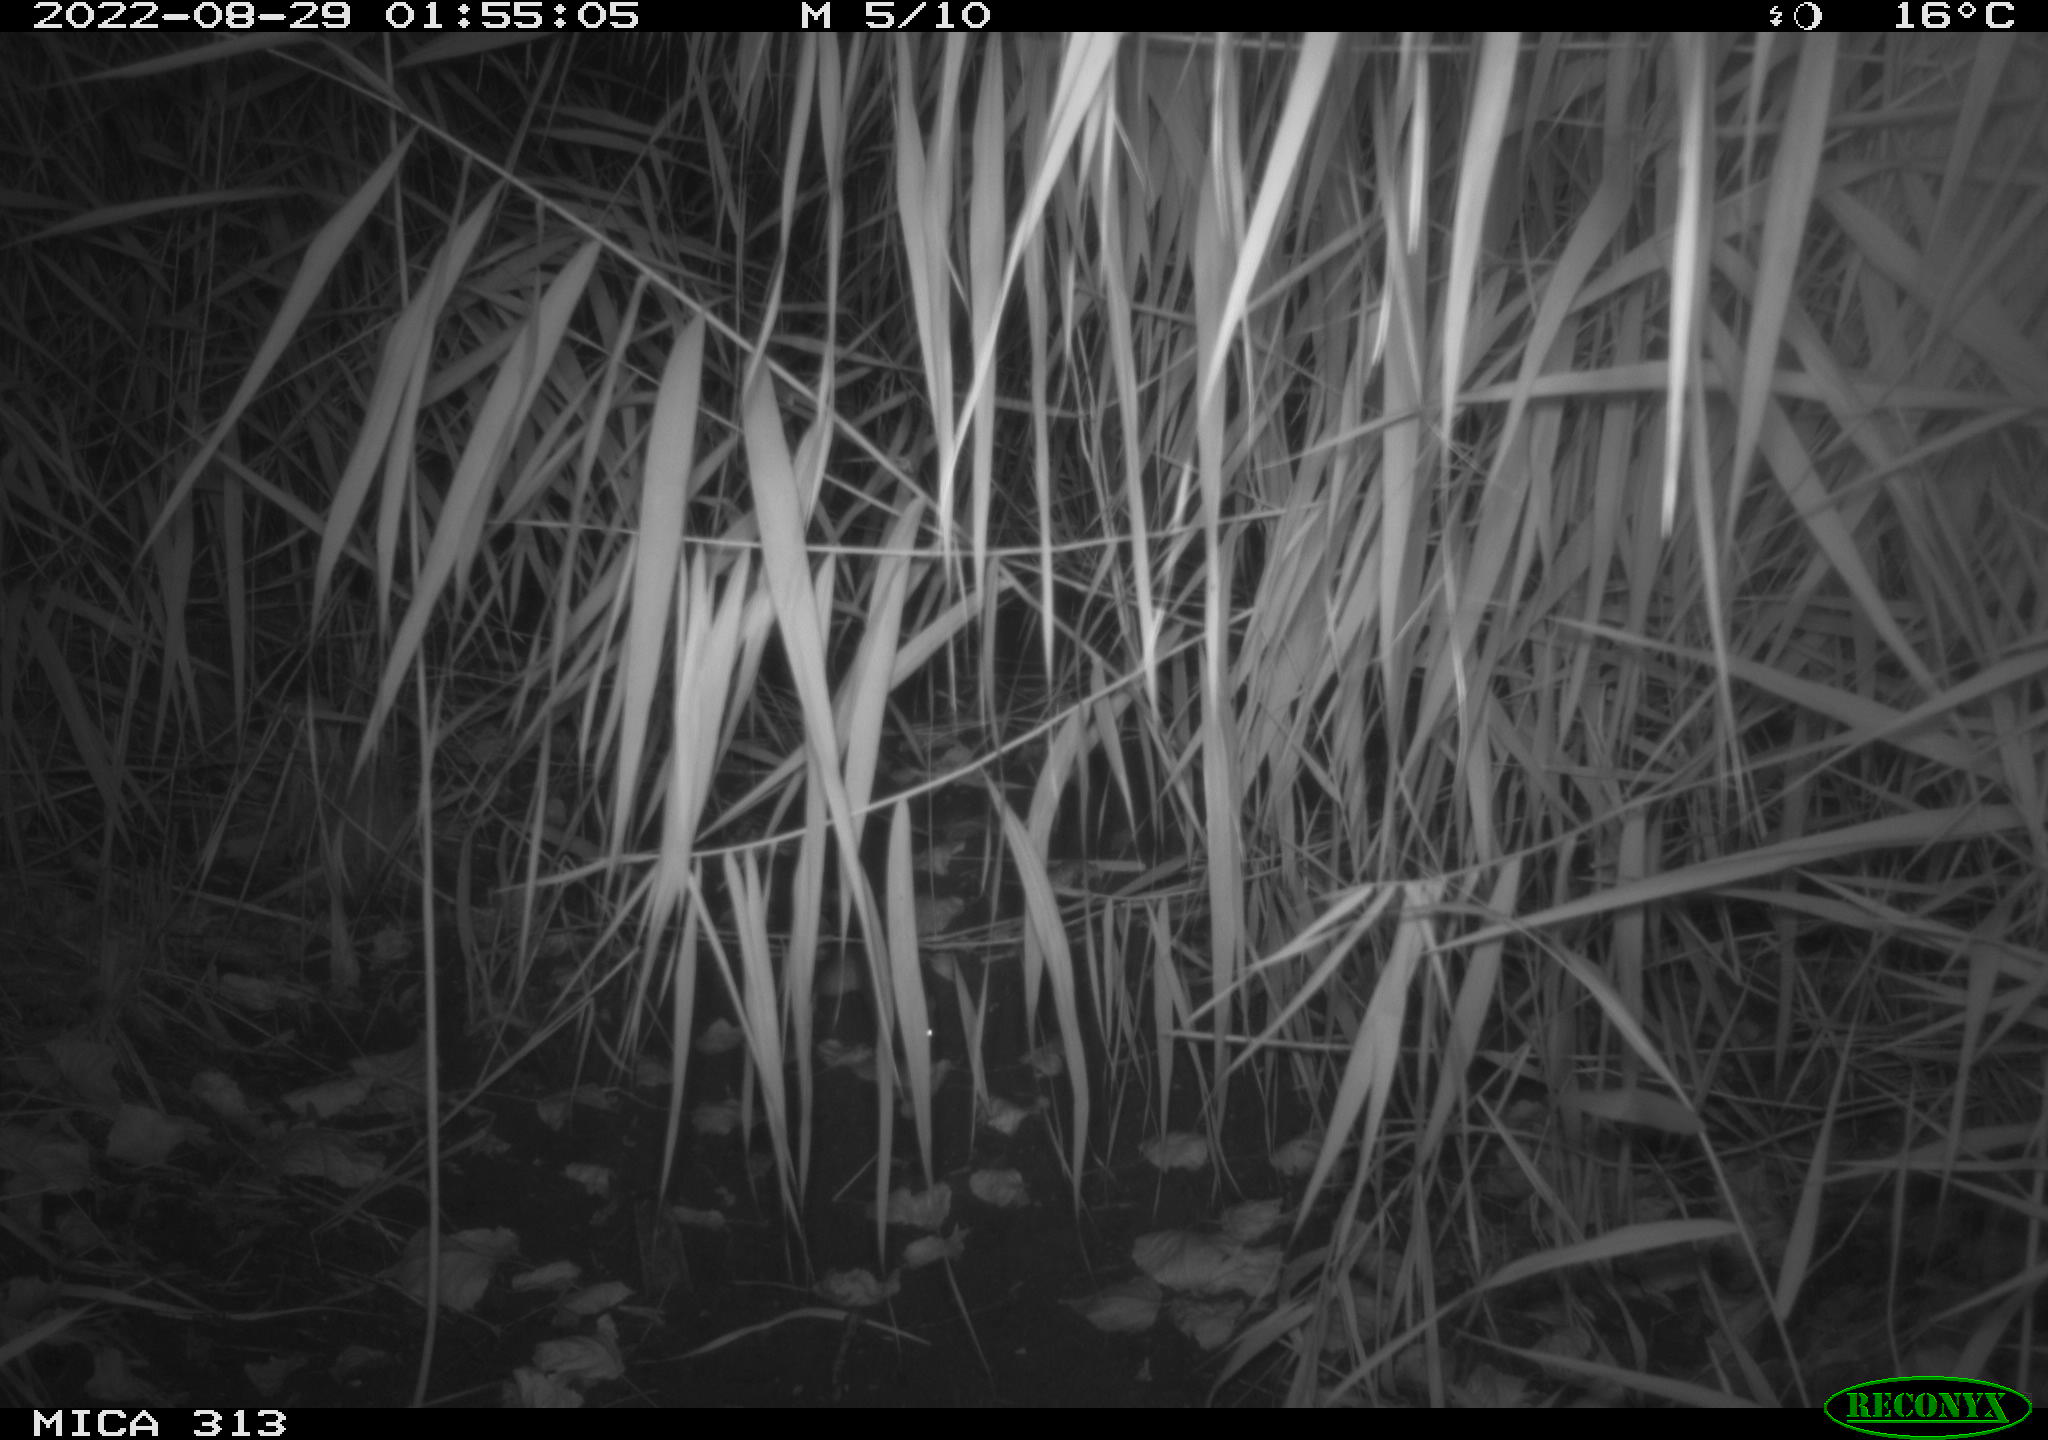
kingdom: Animalia
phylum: Chordata
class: Mammalia
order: Rodentia
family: Muridae
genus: Rattus
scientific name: Rattus norvegicus
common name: Brown rat
